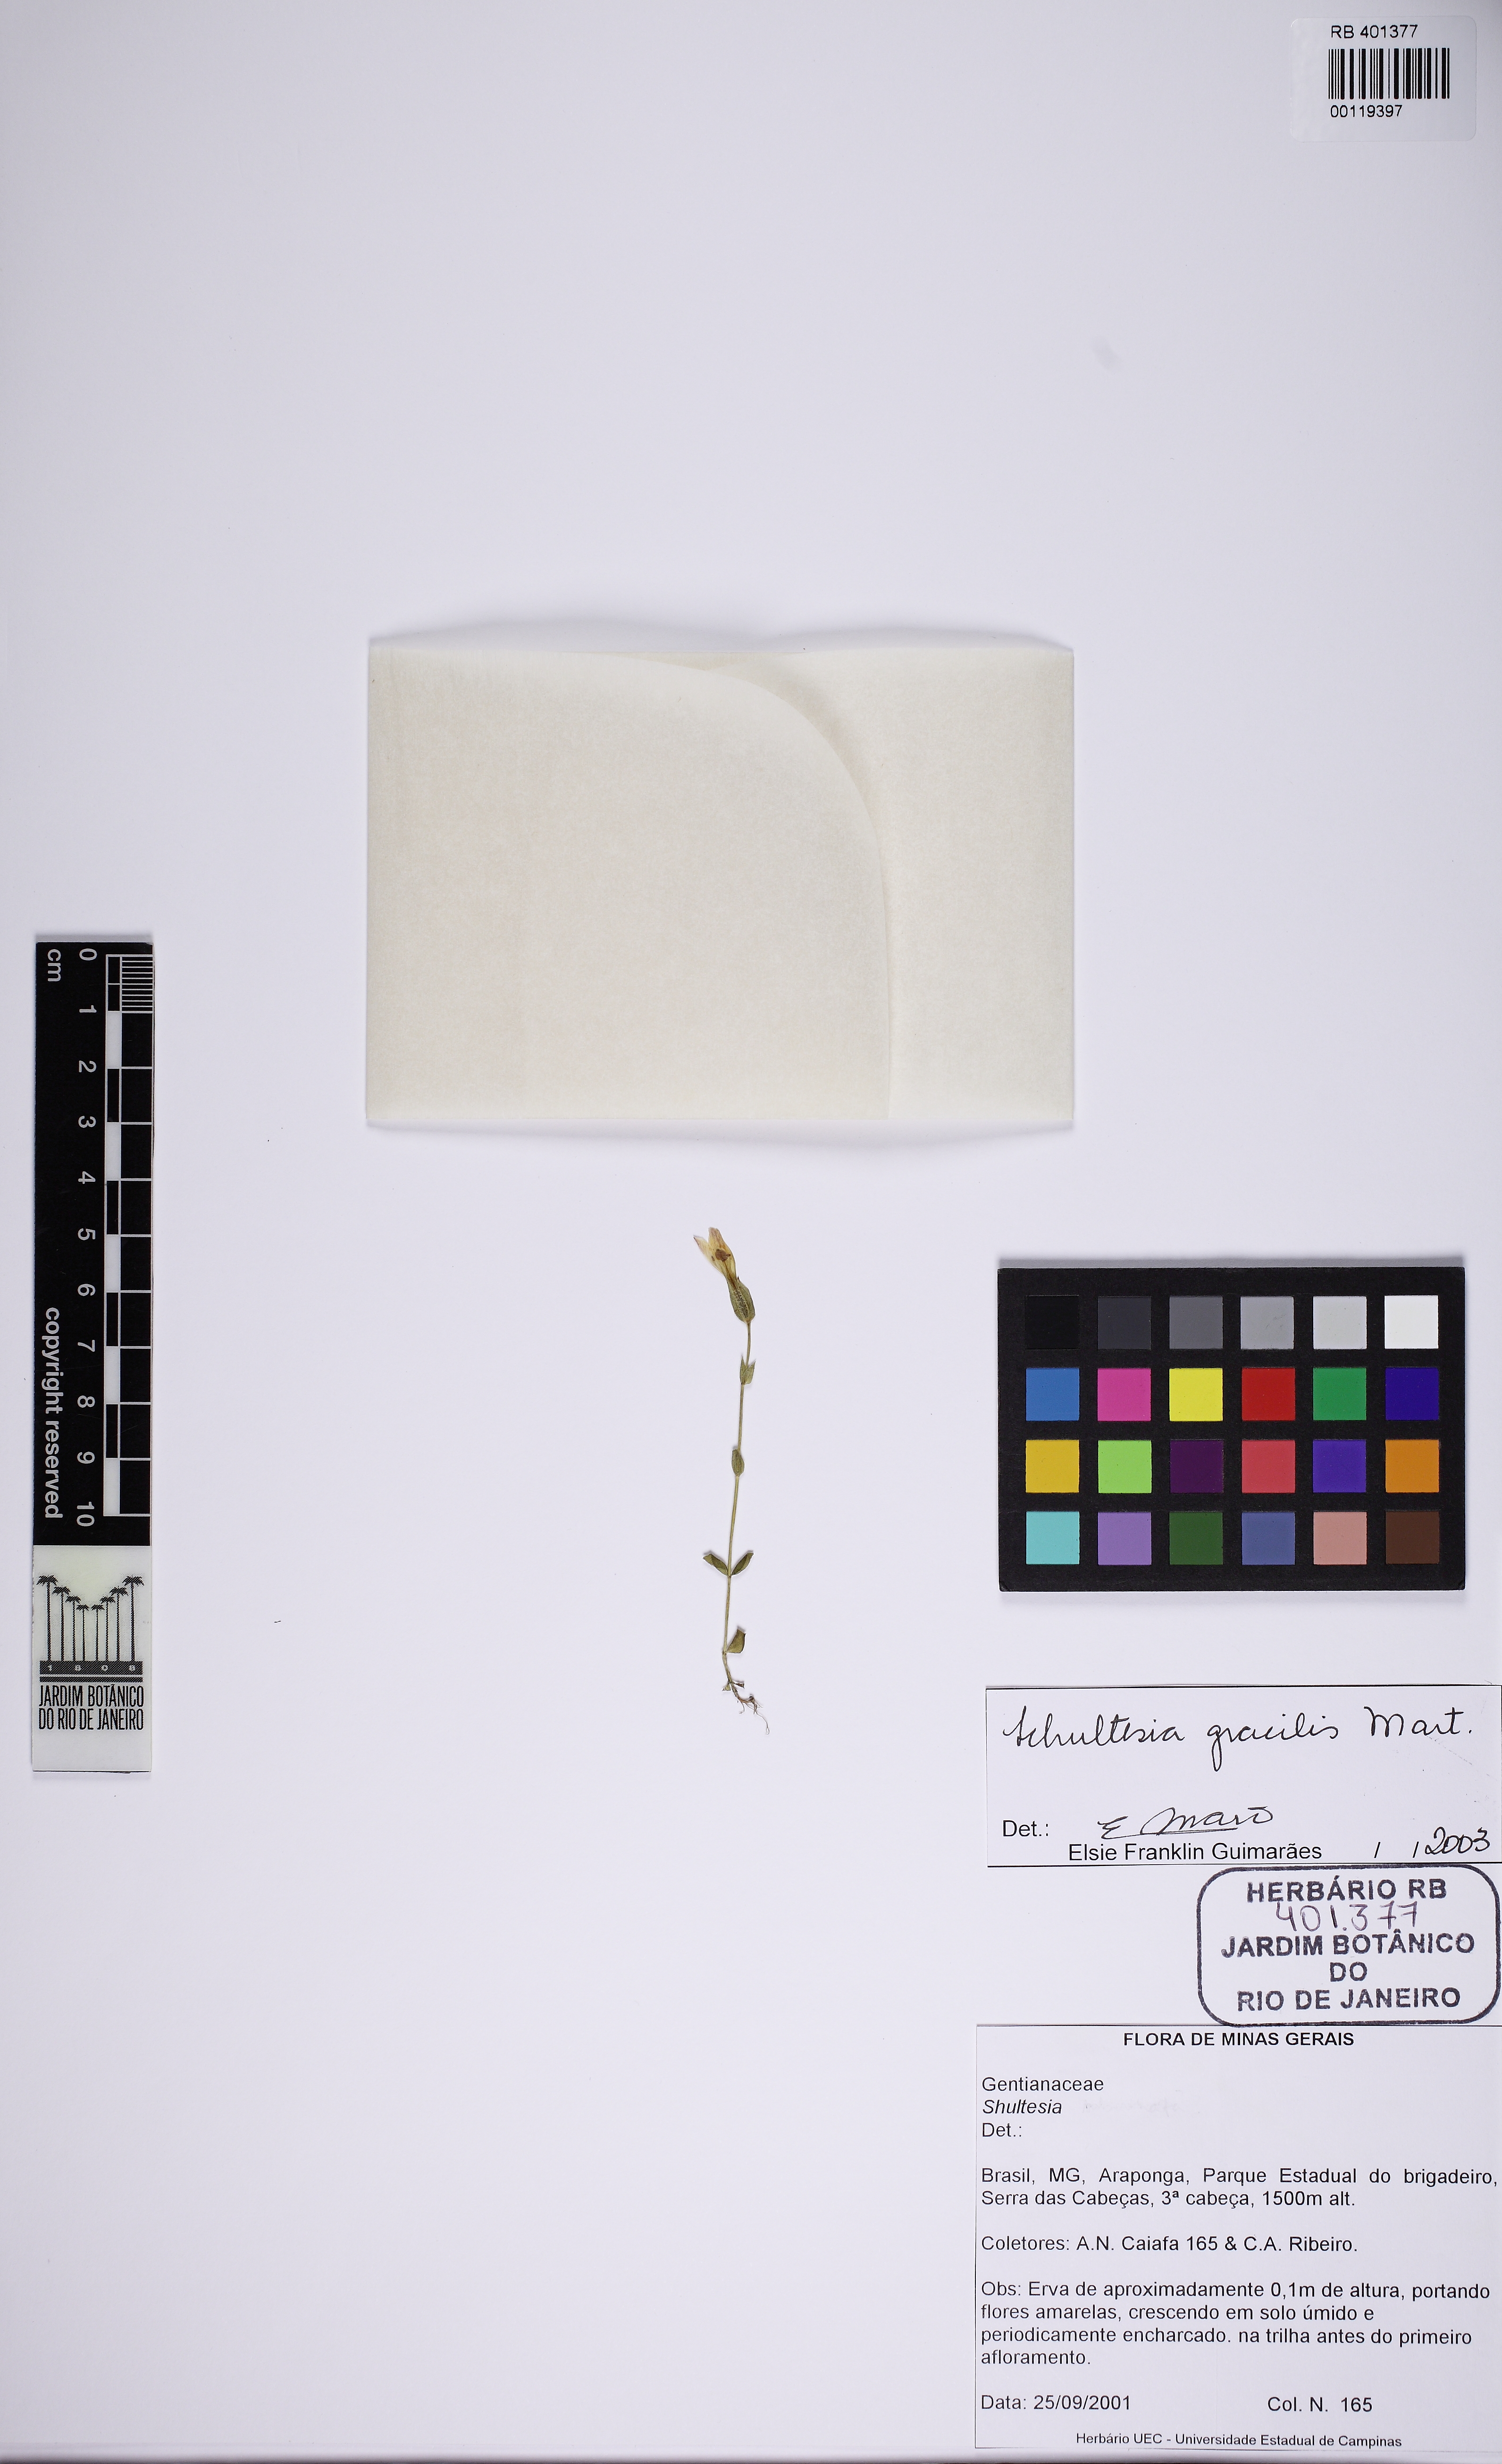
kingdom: Plantae
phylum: Tracheophyta
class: Magnoliopsida
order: Gentianales
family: Gentianaceae
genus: Schultesia
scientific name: Schultesia gracilis
